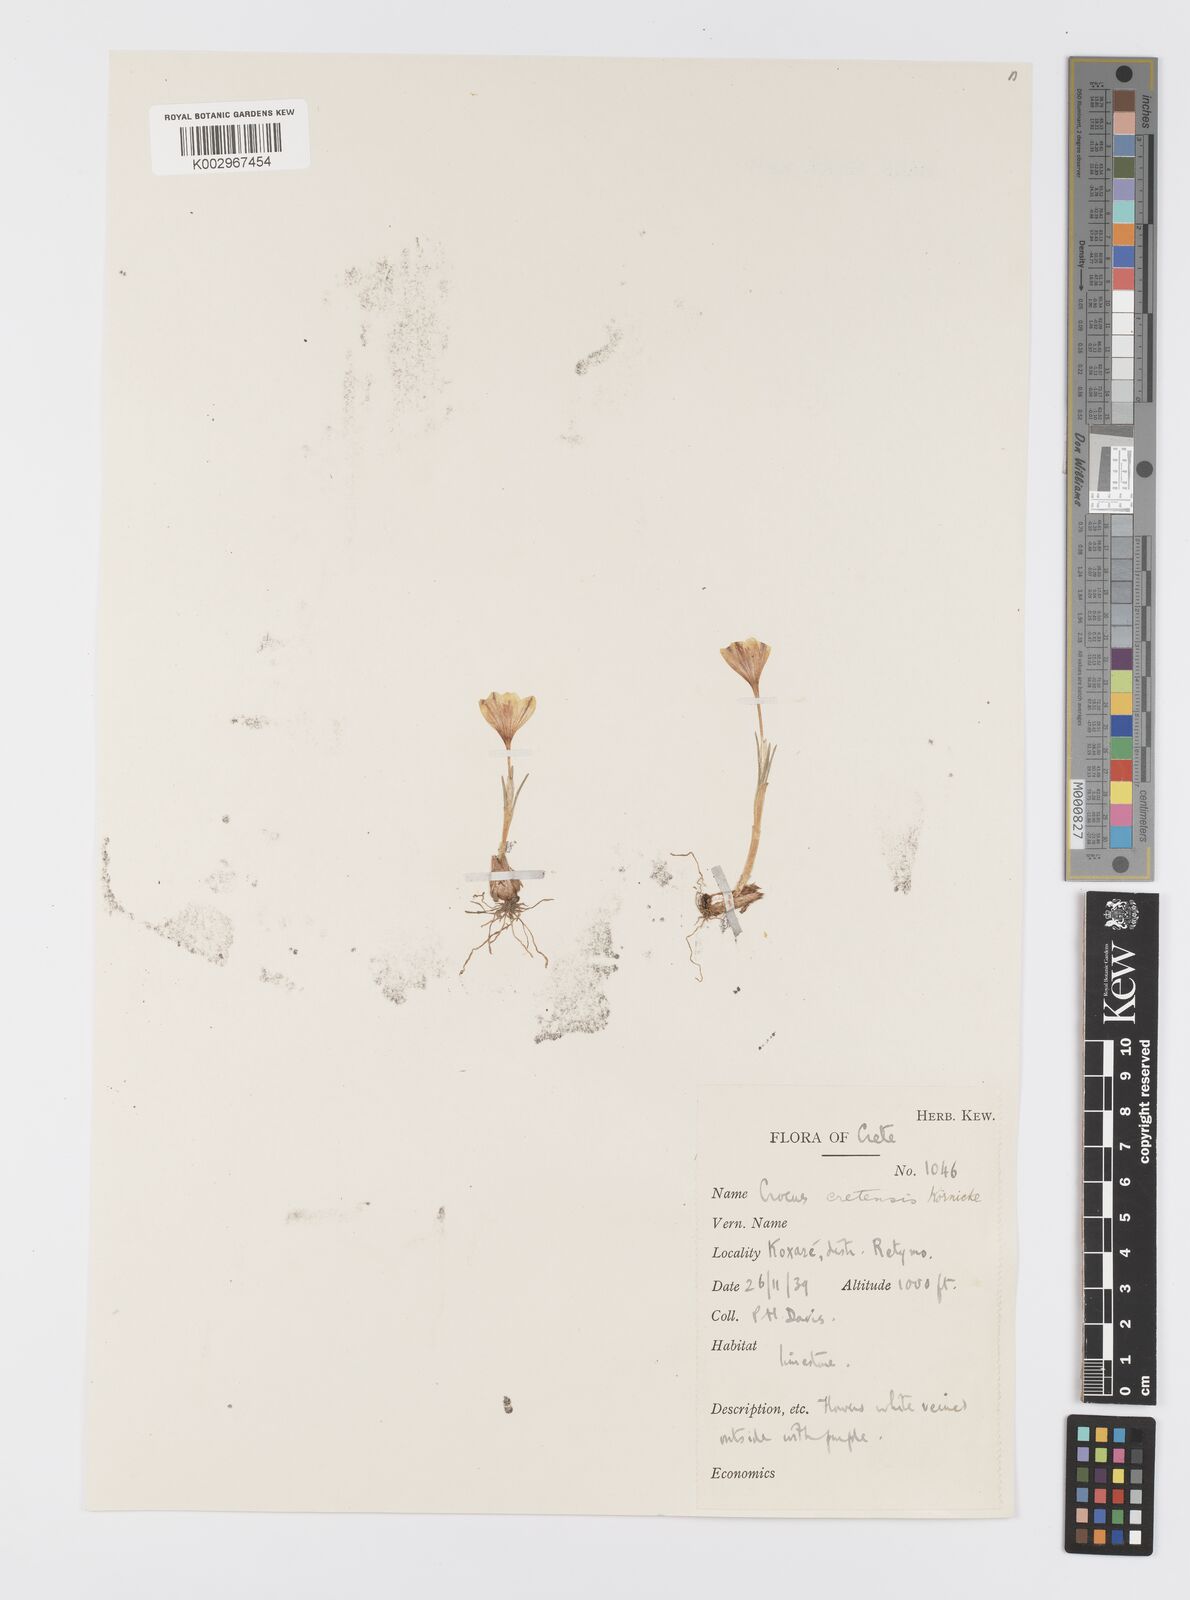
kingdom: Plantae
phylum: Tracheophyta
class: Liliopsida
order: Asparagales
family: Iridaceae
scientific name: Iridaceae
